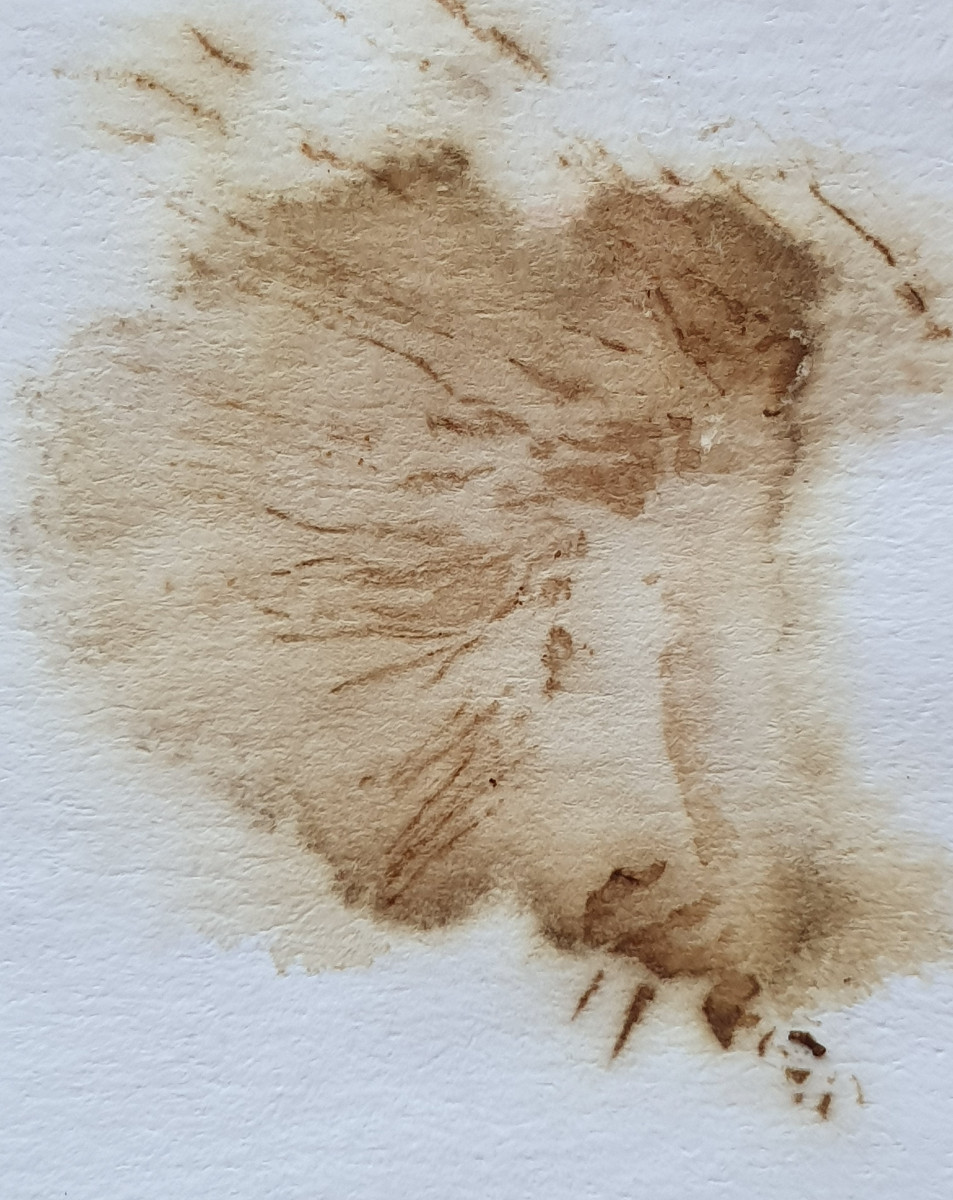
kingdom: Fungi
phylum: Basidiomycota
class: Agaricomycetes
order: Boletales
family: Paxillaceae
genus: Paxillus
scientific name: Paxillus ammoniavirescens
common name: olivensporet netbladhat
